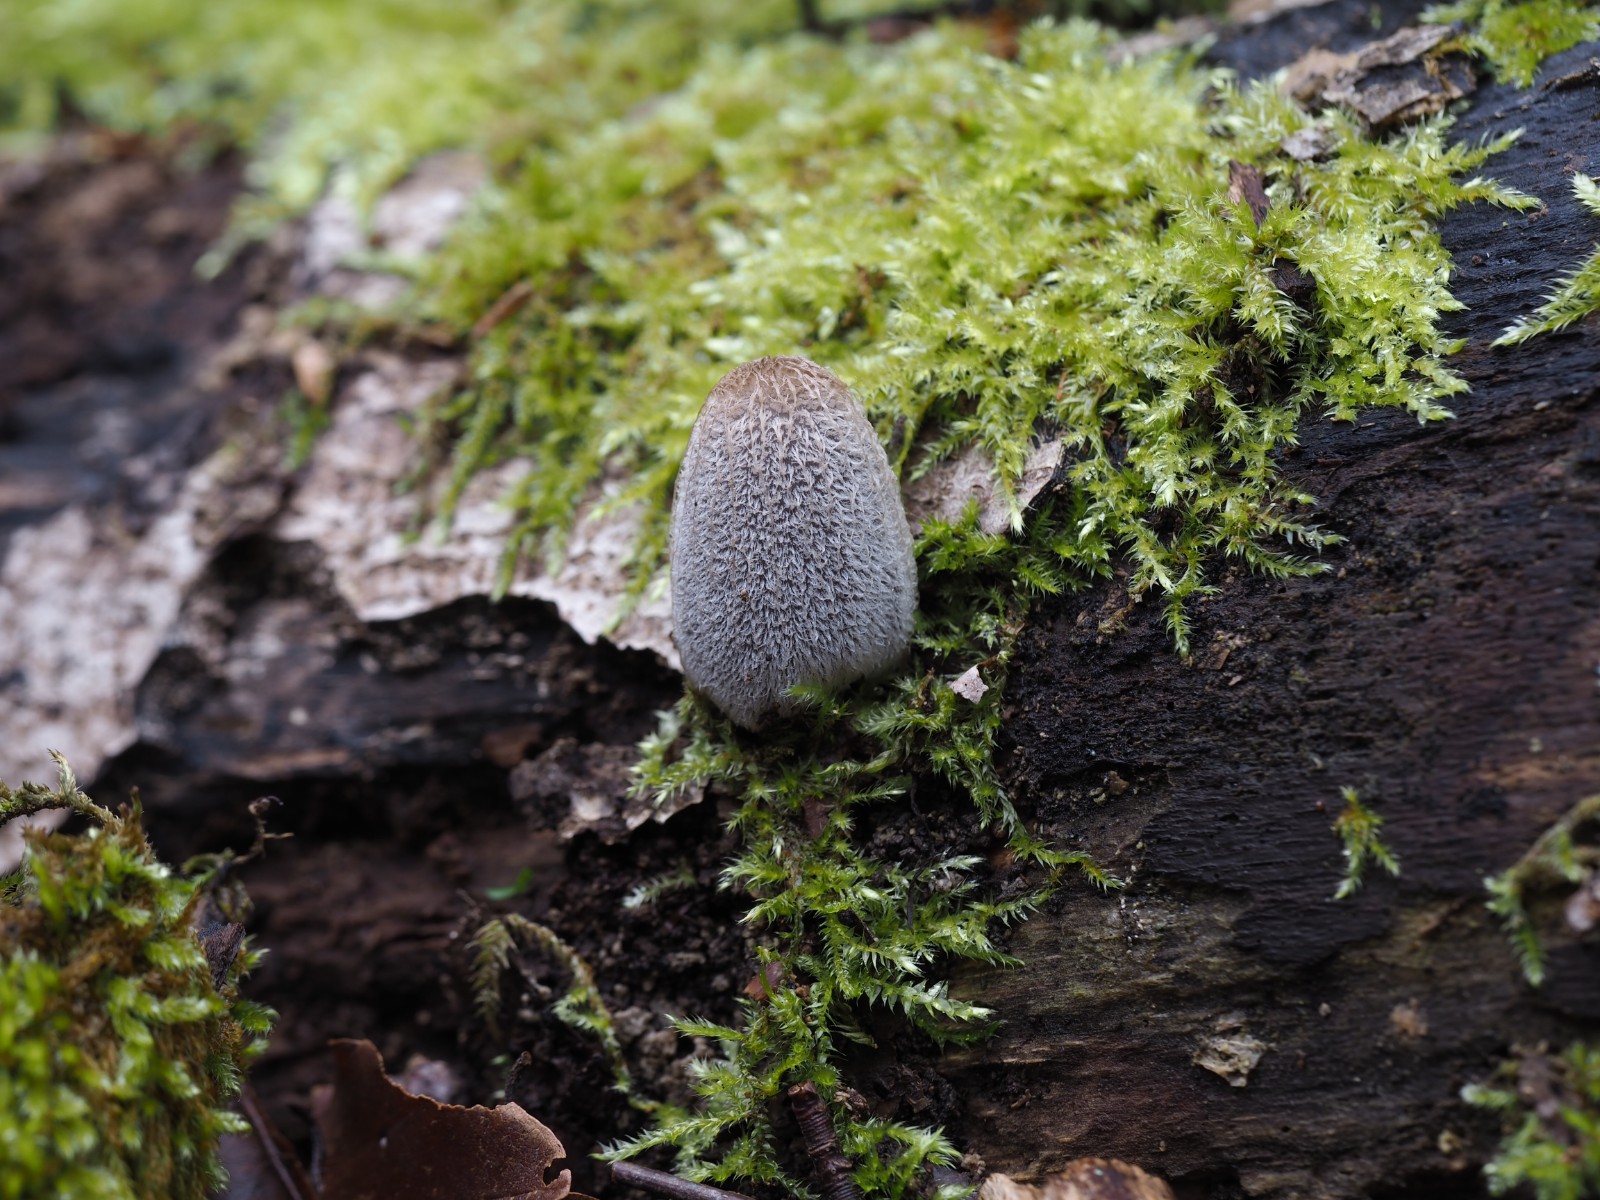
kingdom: Fungi
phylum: Basidiomycota
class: Agaricomycetes
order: Agaricales
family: Psathyrellaceae
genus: Coprinopsis
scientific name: Coprinopsis lagopus
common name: dunstokket blækhat
